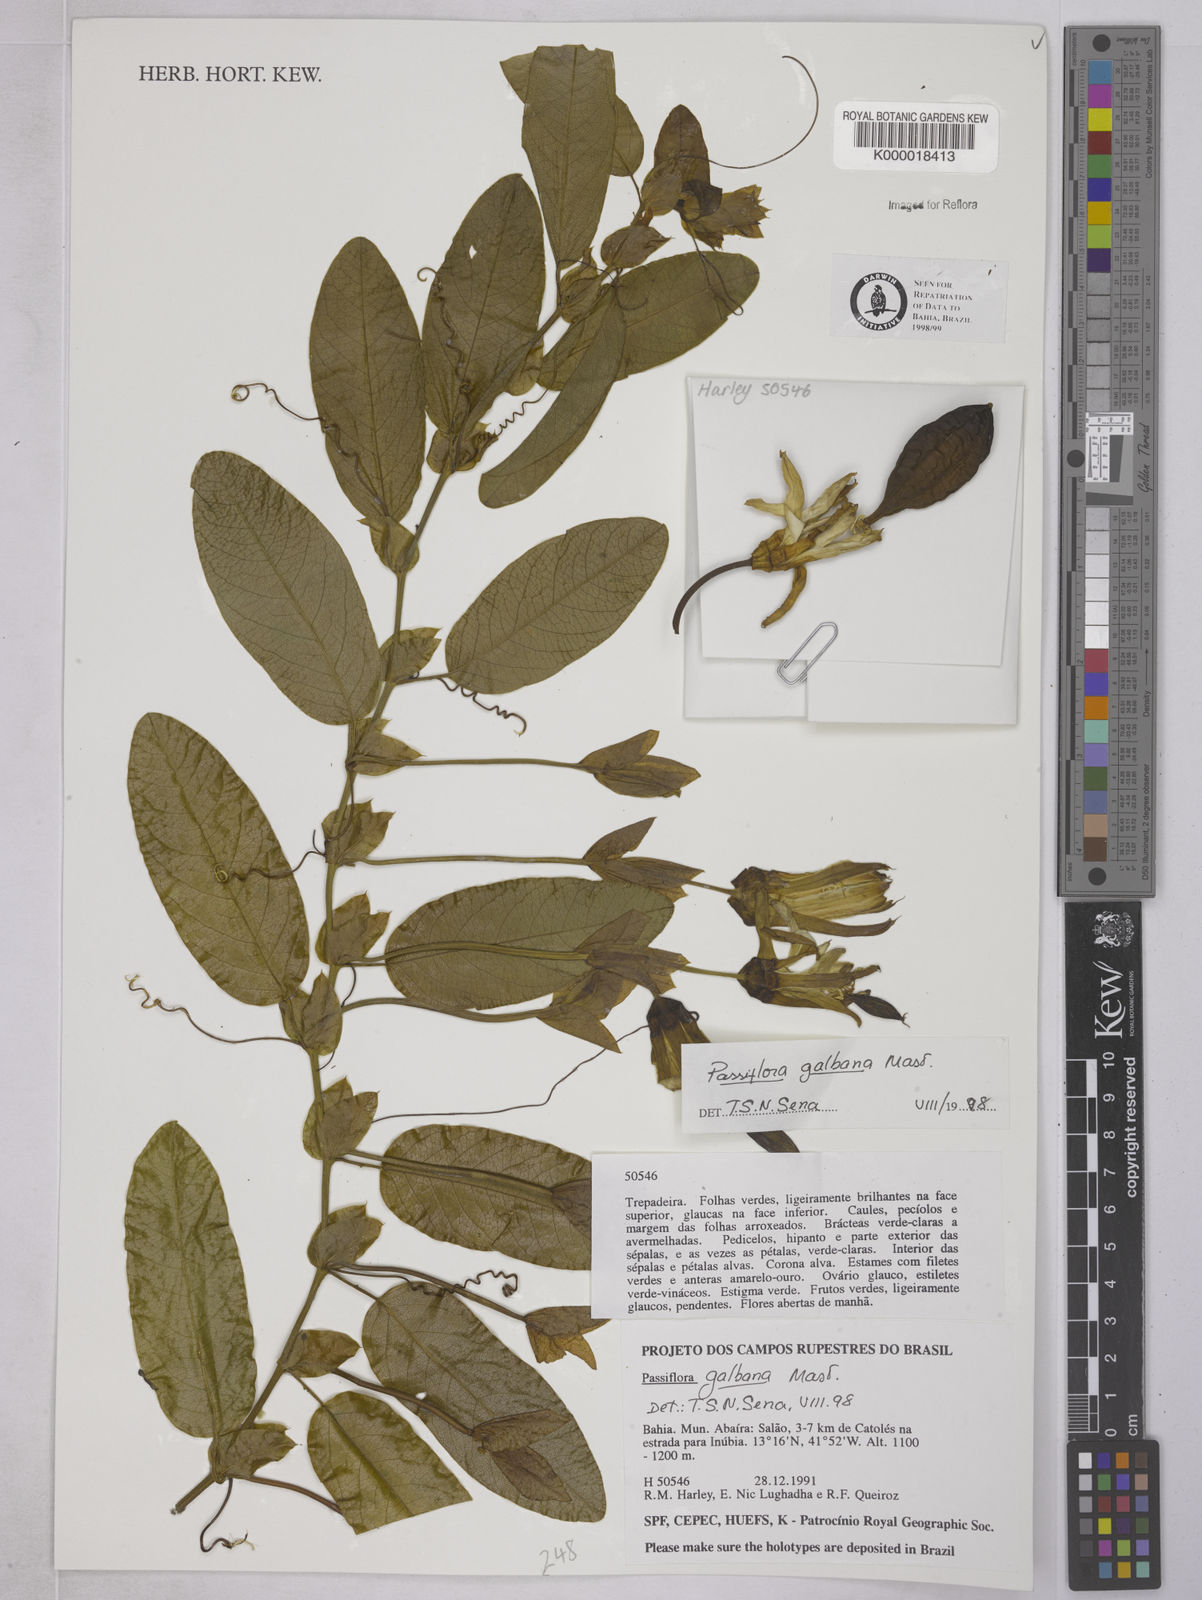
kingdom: Plantae
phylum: Tracheophyta
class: Magnoliopsida
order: Malpighiales
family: Passifloraceae
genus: Passiflora
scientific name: Passiflora silvestris
